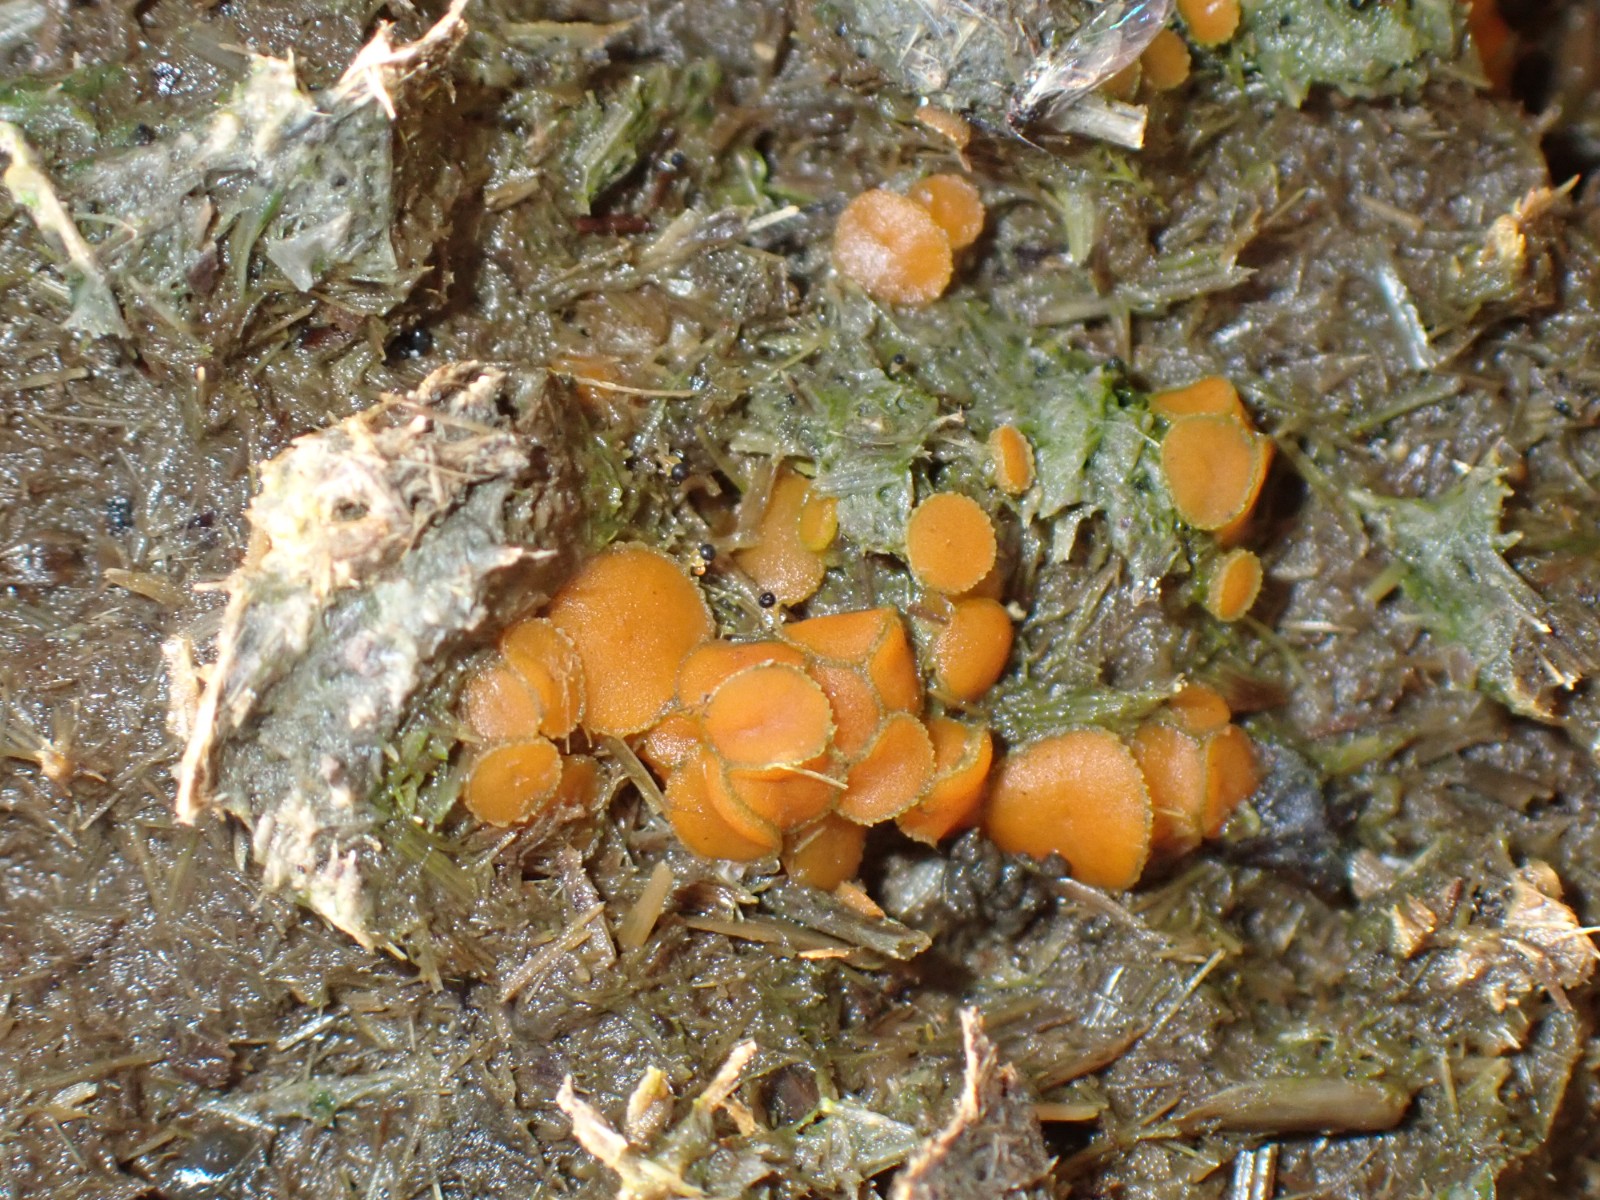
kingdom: Fungi
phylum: Ascomycota
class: Pezizomycetes
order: Pezizales
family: Pyronemataceae
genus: Cheilymenia
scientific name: Cheilymenia granulata
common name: møgbæger
